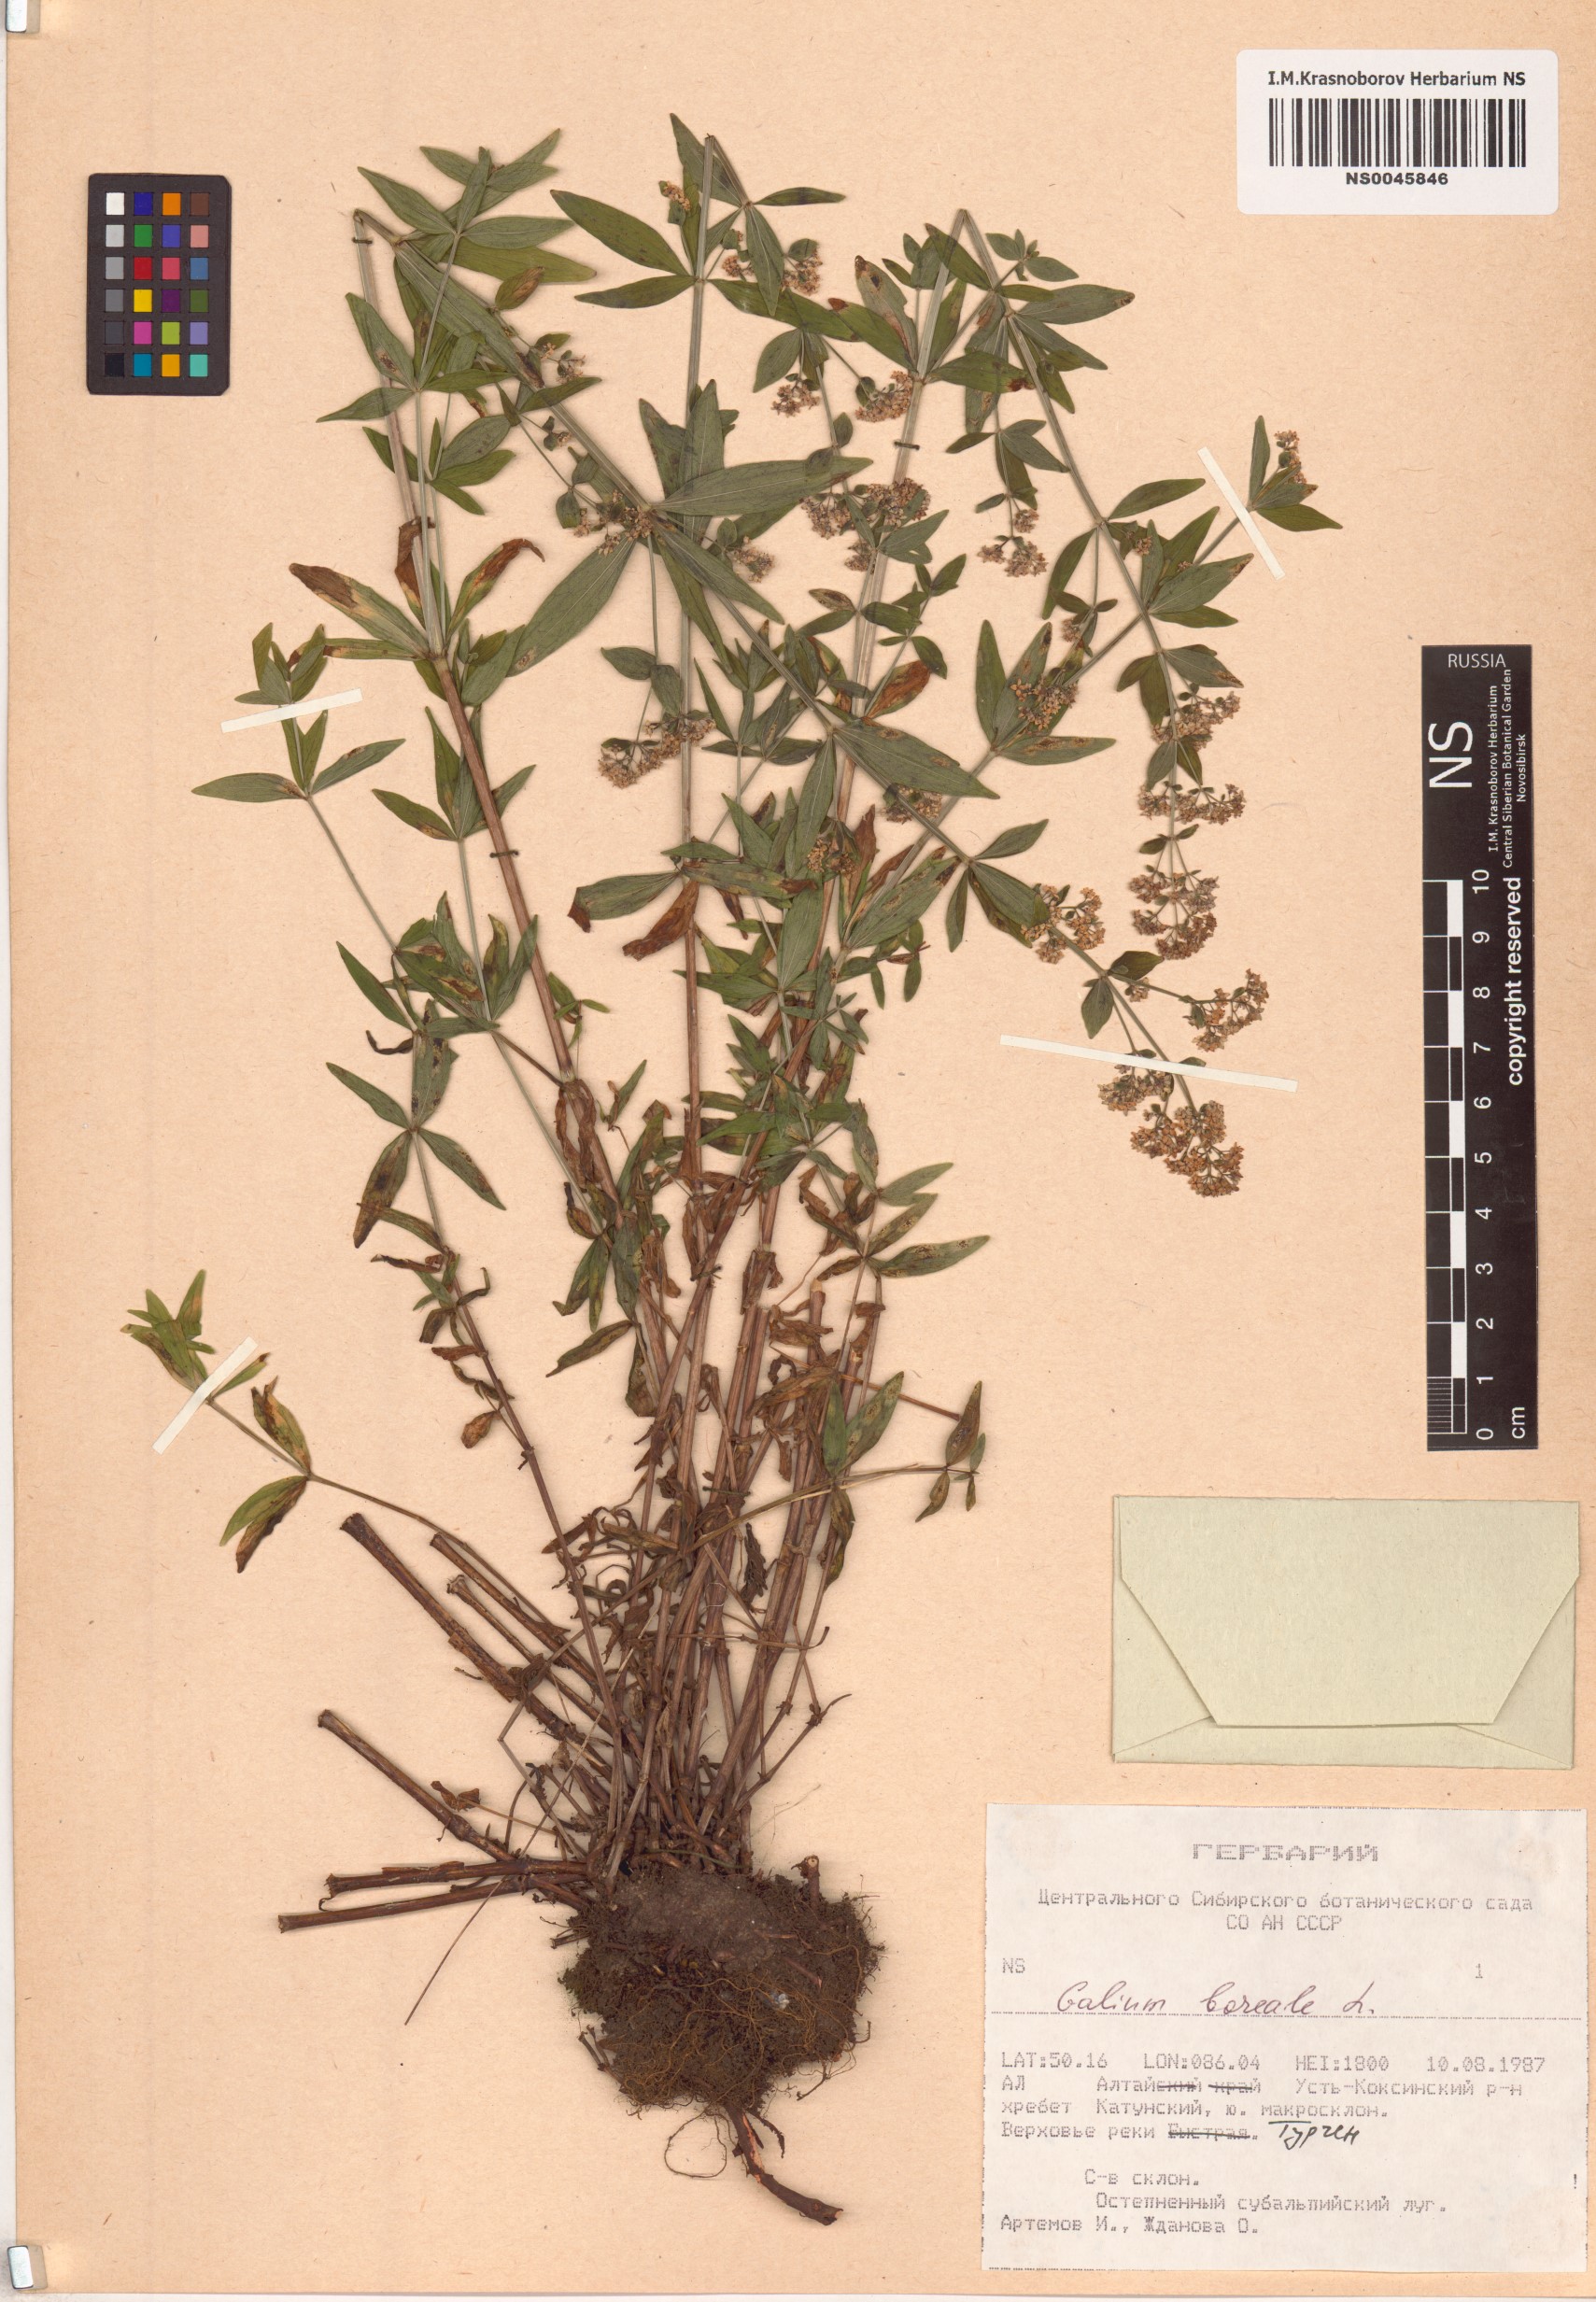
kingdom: Plantae
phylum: Tracheophyta
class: Magnoliopsida
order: Gentianales
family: Rubiaceae
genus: Galium
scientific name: Galium boreale
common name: Northern bedstraw
